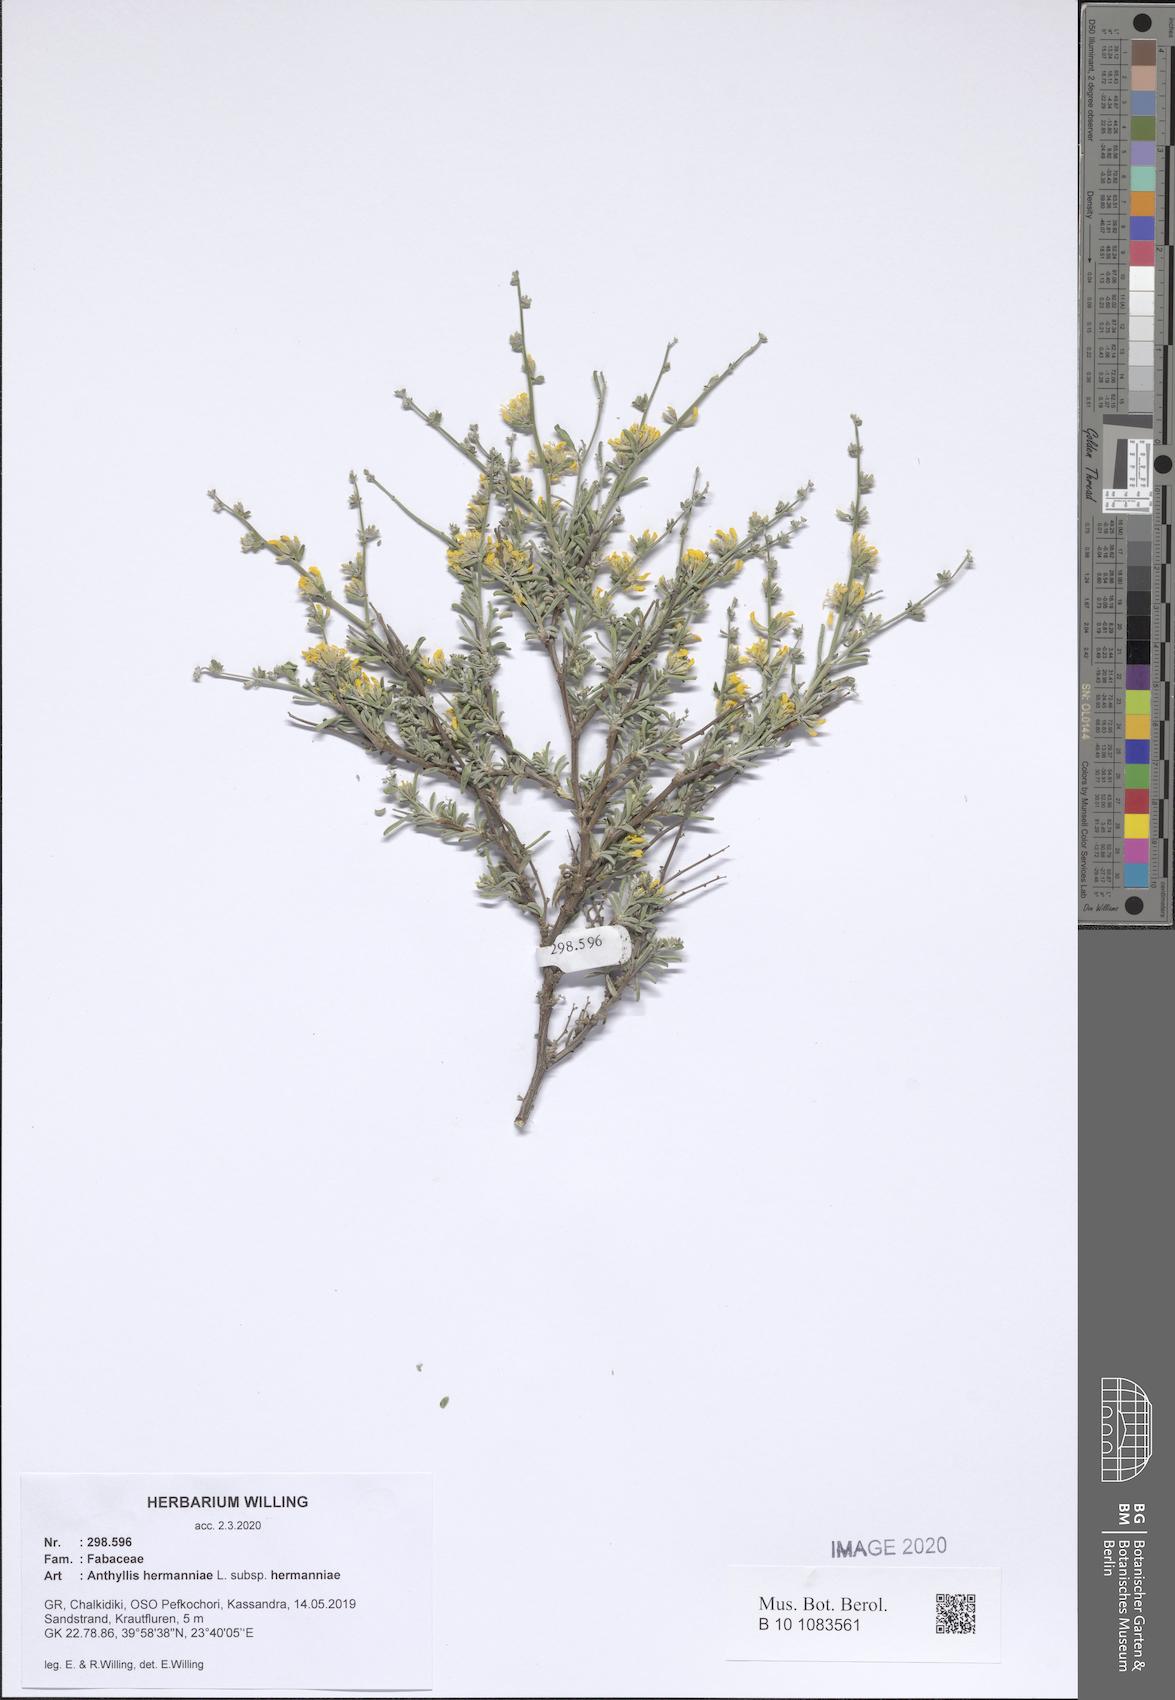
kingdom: Plantae
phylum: Tracheophyta
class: Magnoliopsida
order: Fabales
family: Fabaceae
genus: Anthyllis
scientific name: Anthyllis hermanniae
